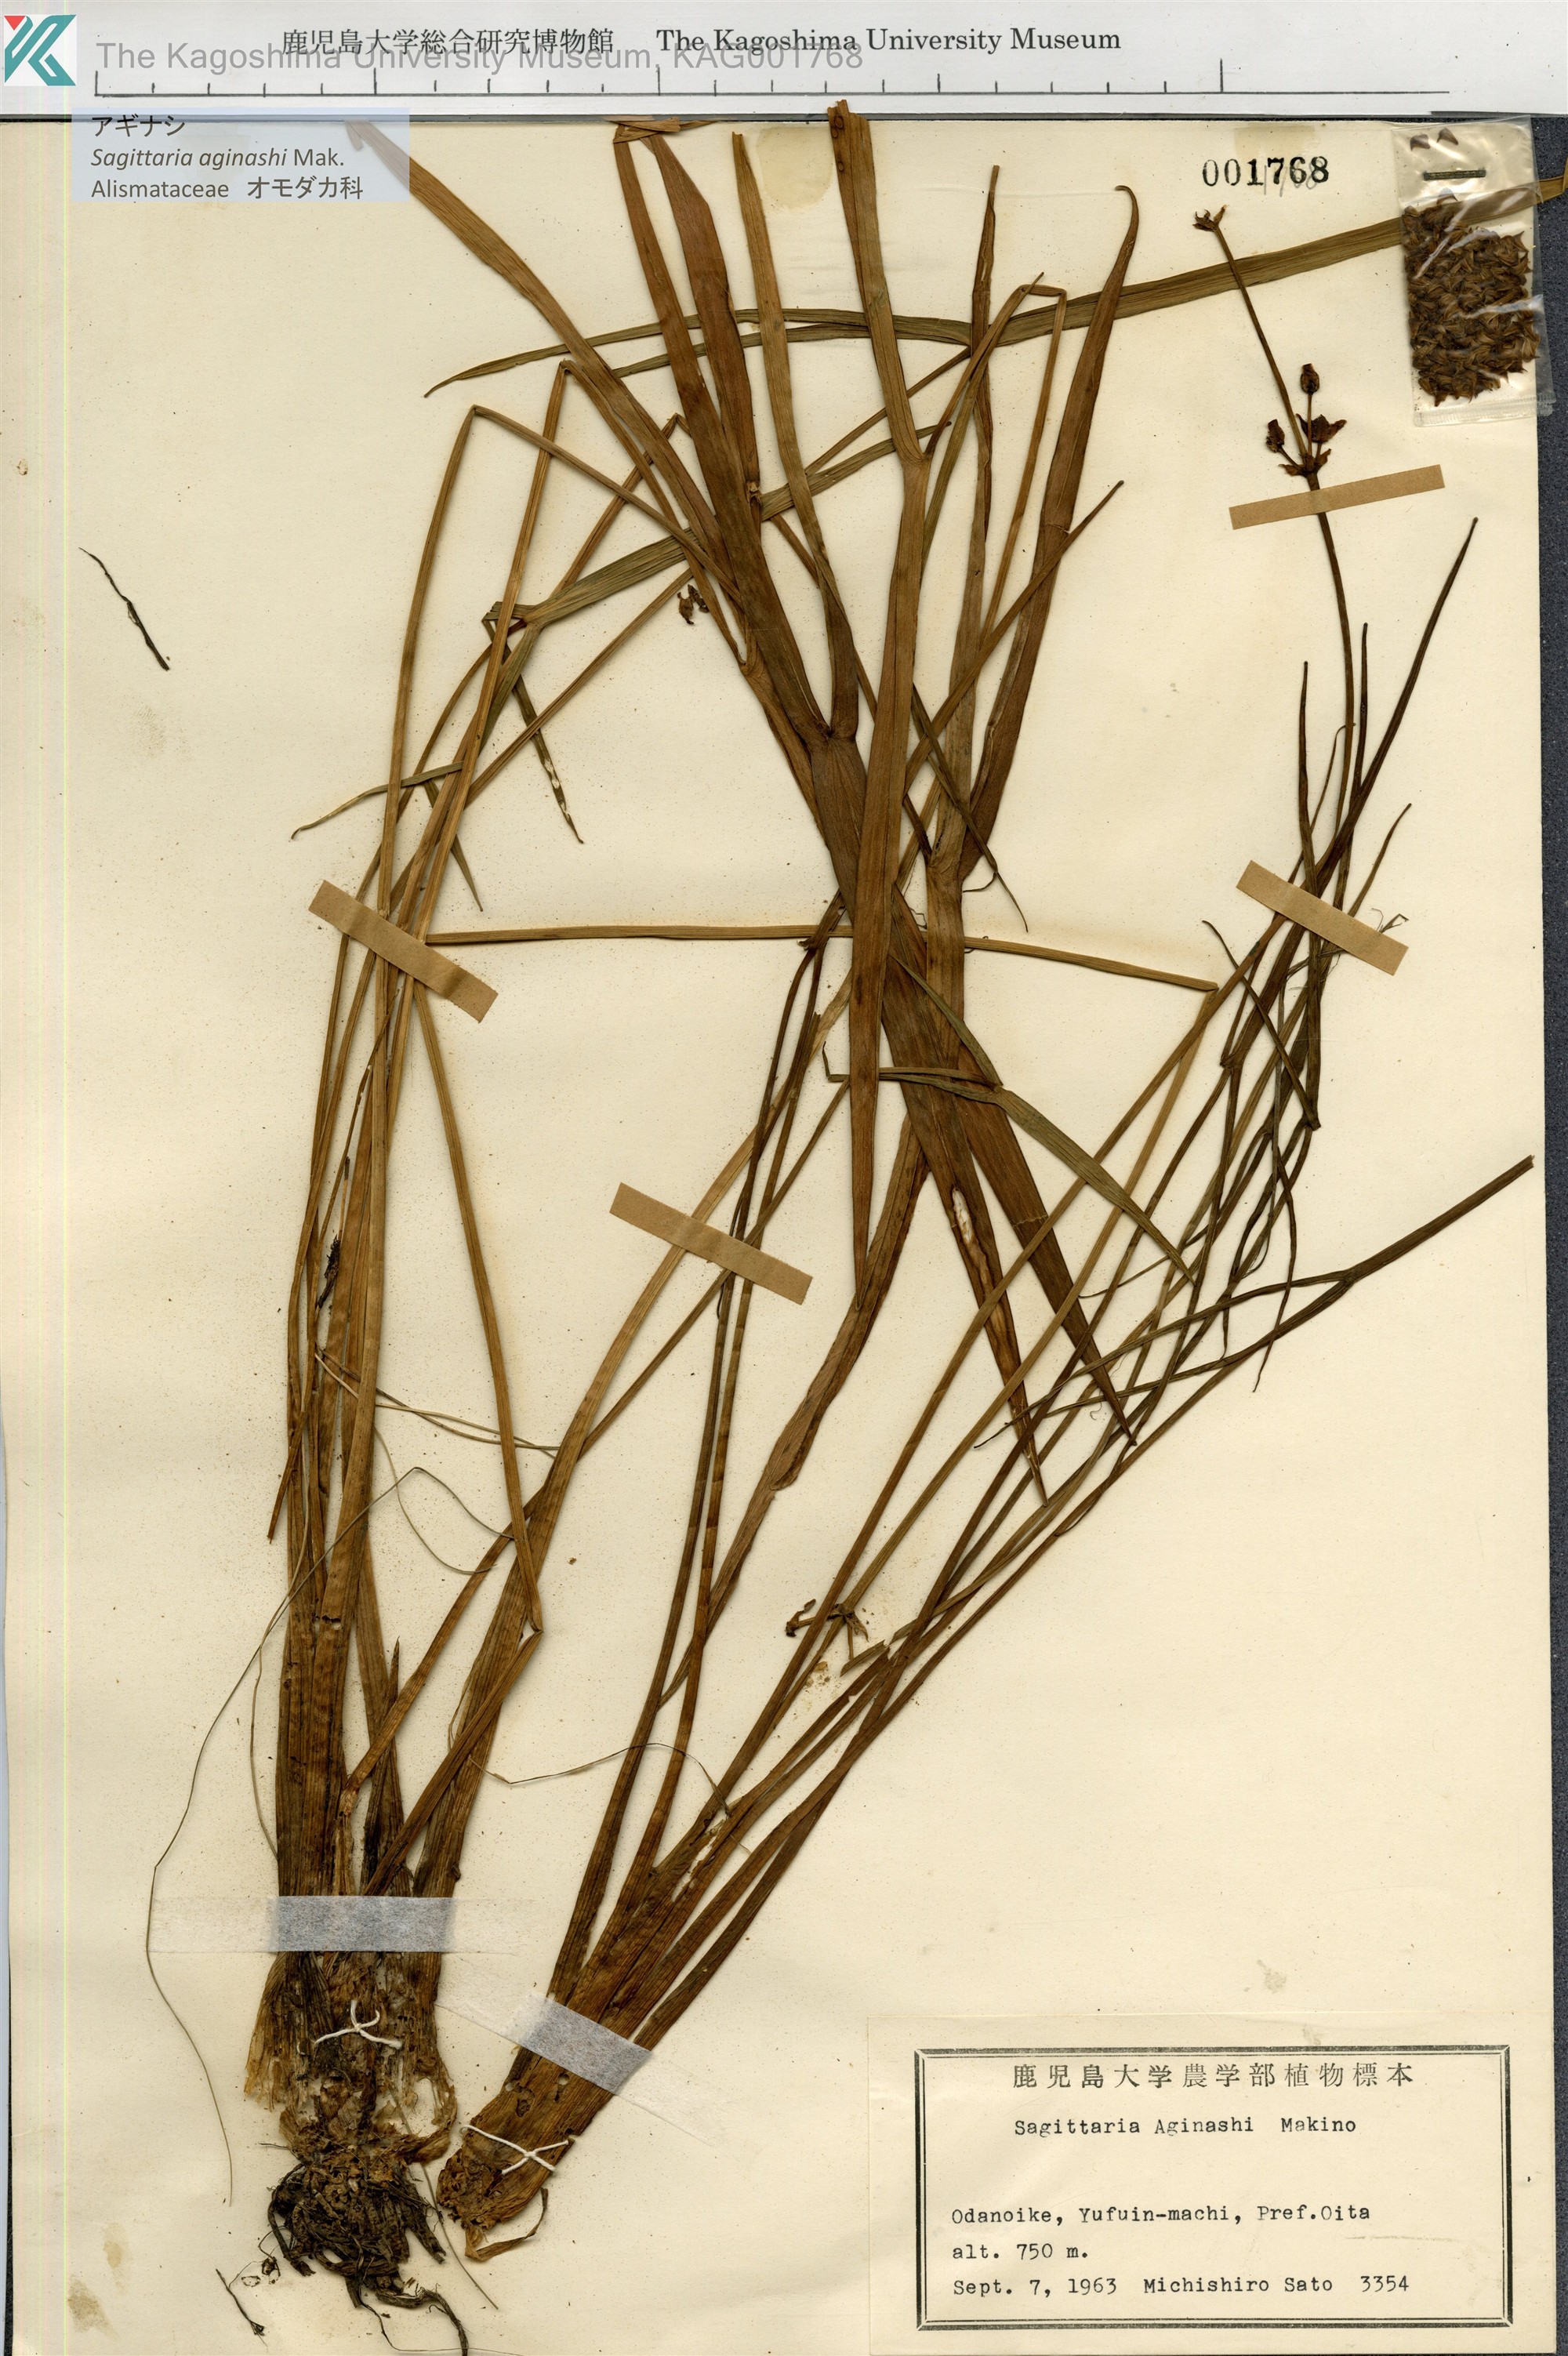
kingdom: Plantae
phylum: Tracheophyta
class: Liliopsida
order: Alismatales
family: Alismataceae
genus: Sagittaria
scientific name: Sagittaria aginashi
